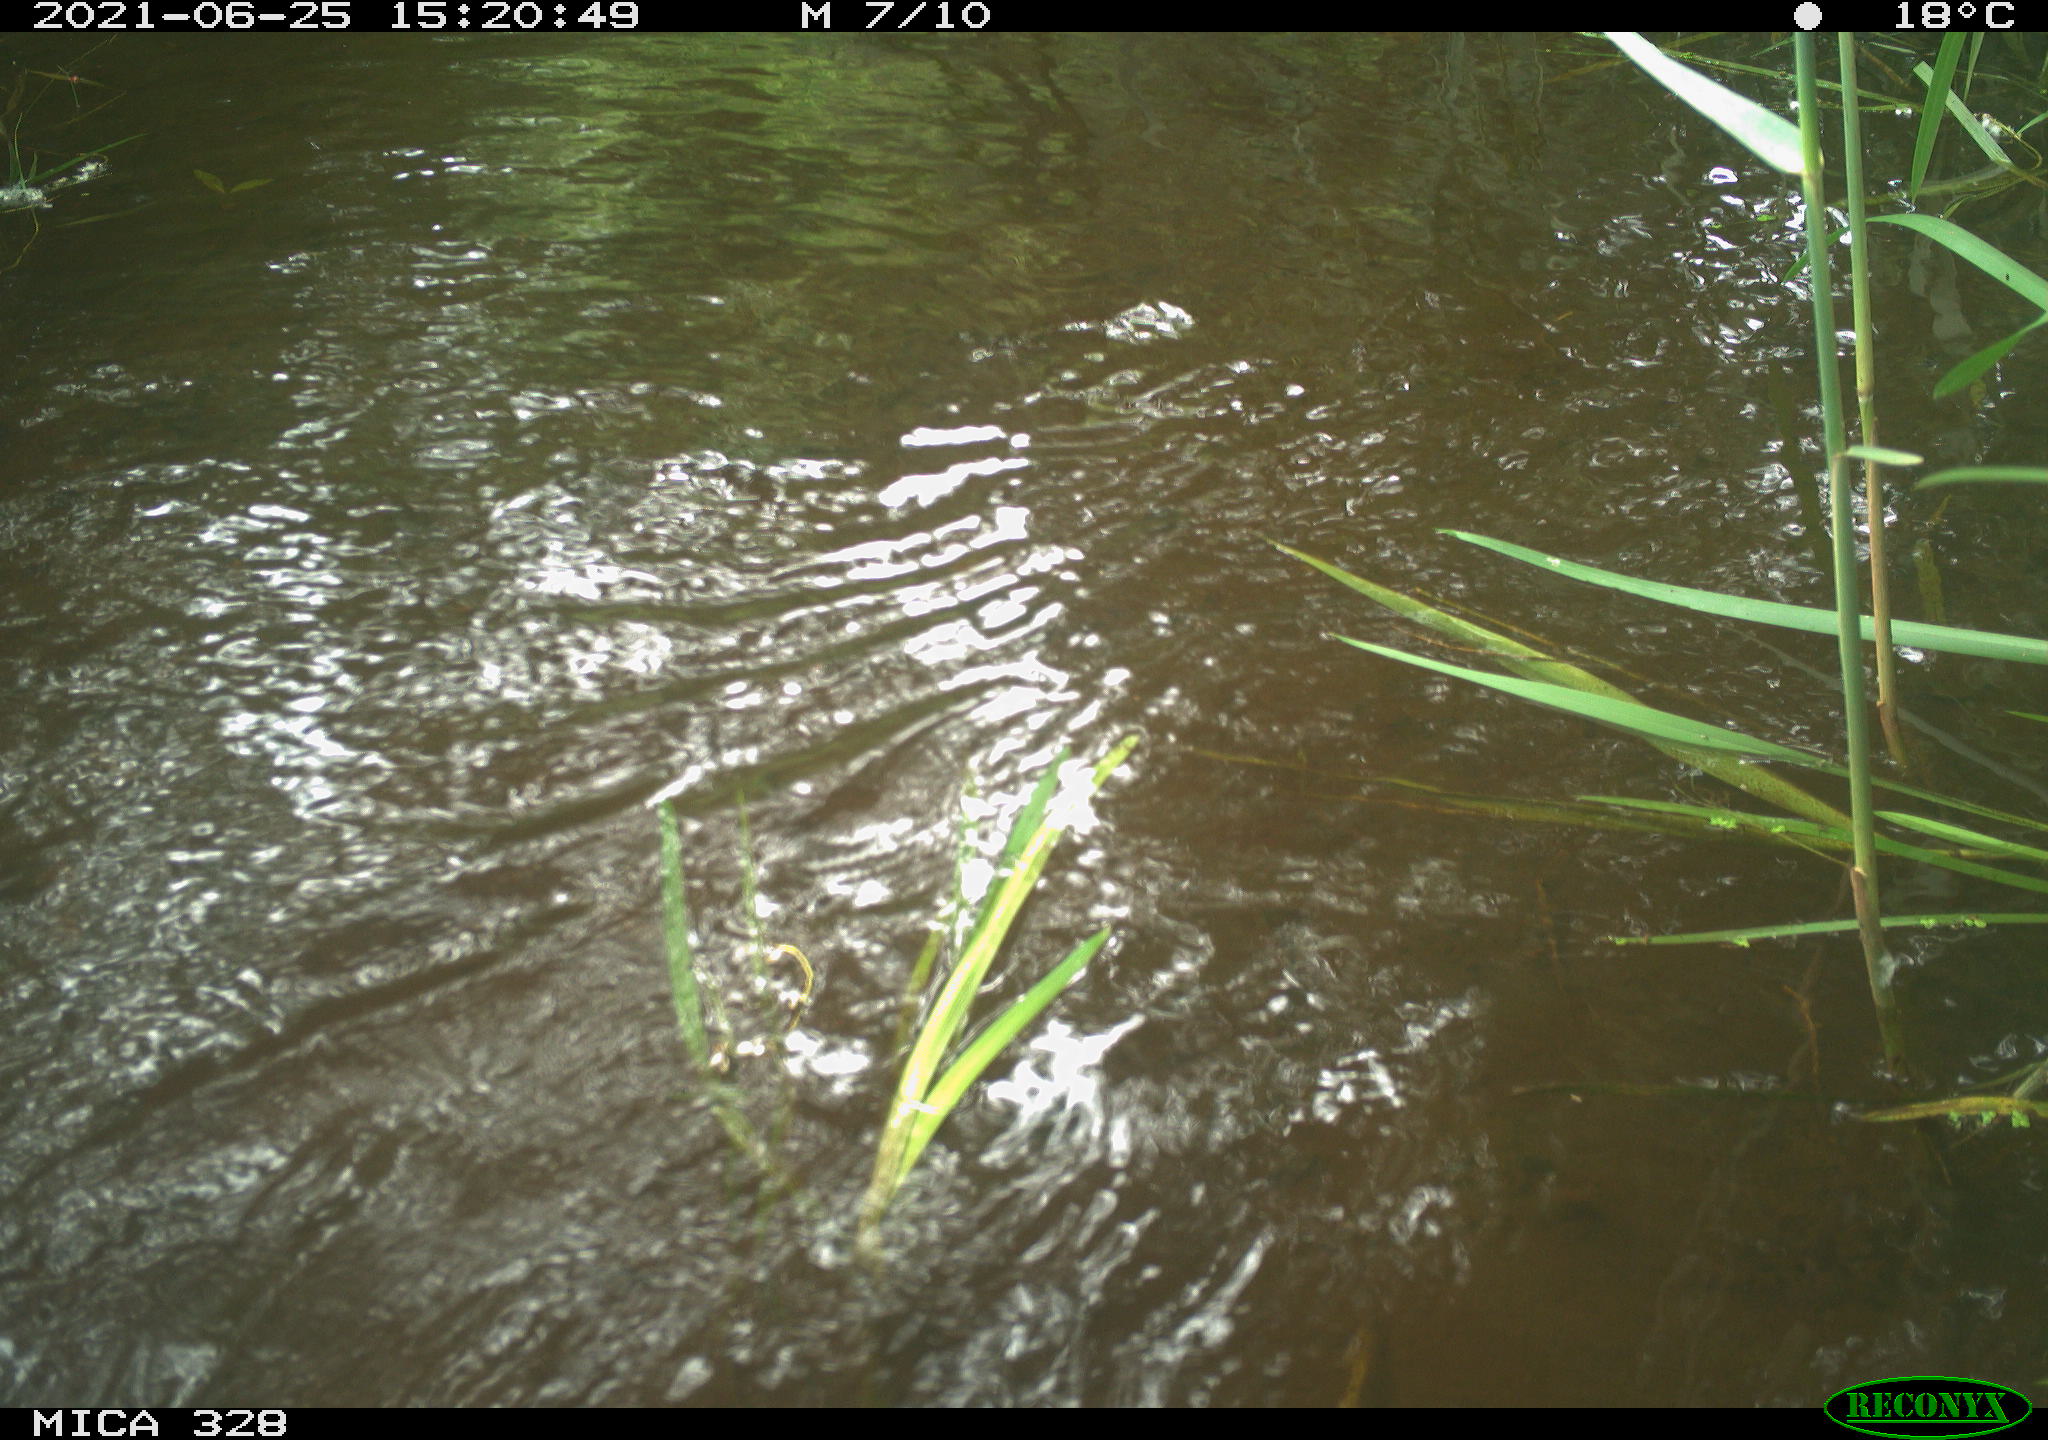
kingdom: Animalia
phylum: Chordata
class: Aves
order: Anseriformes
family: Anatidae
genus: Aix
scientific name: Aix galericulata
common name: Mandarin duck
